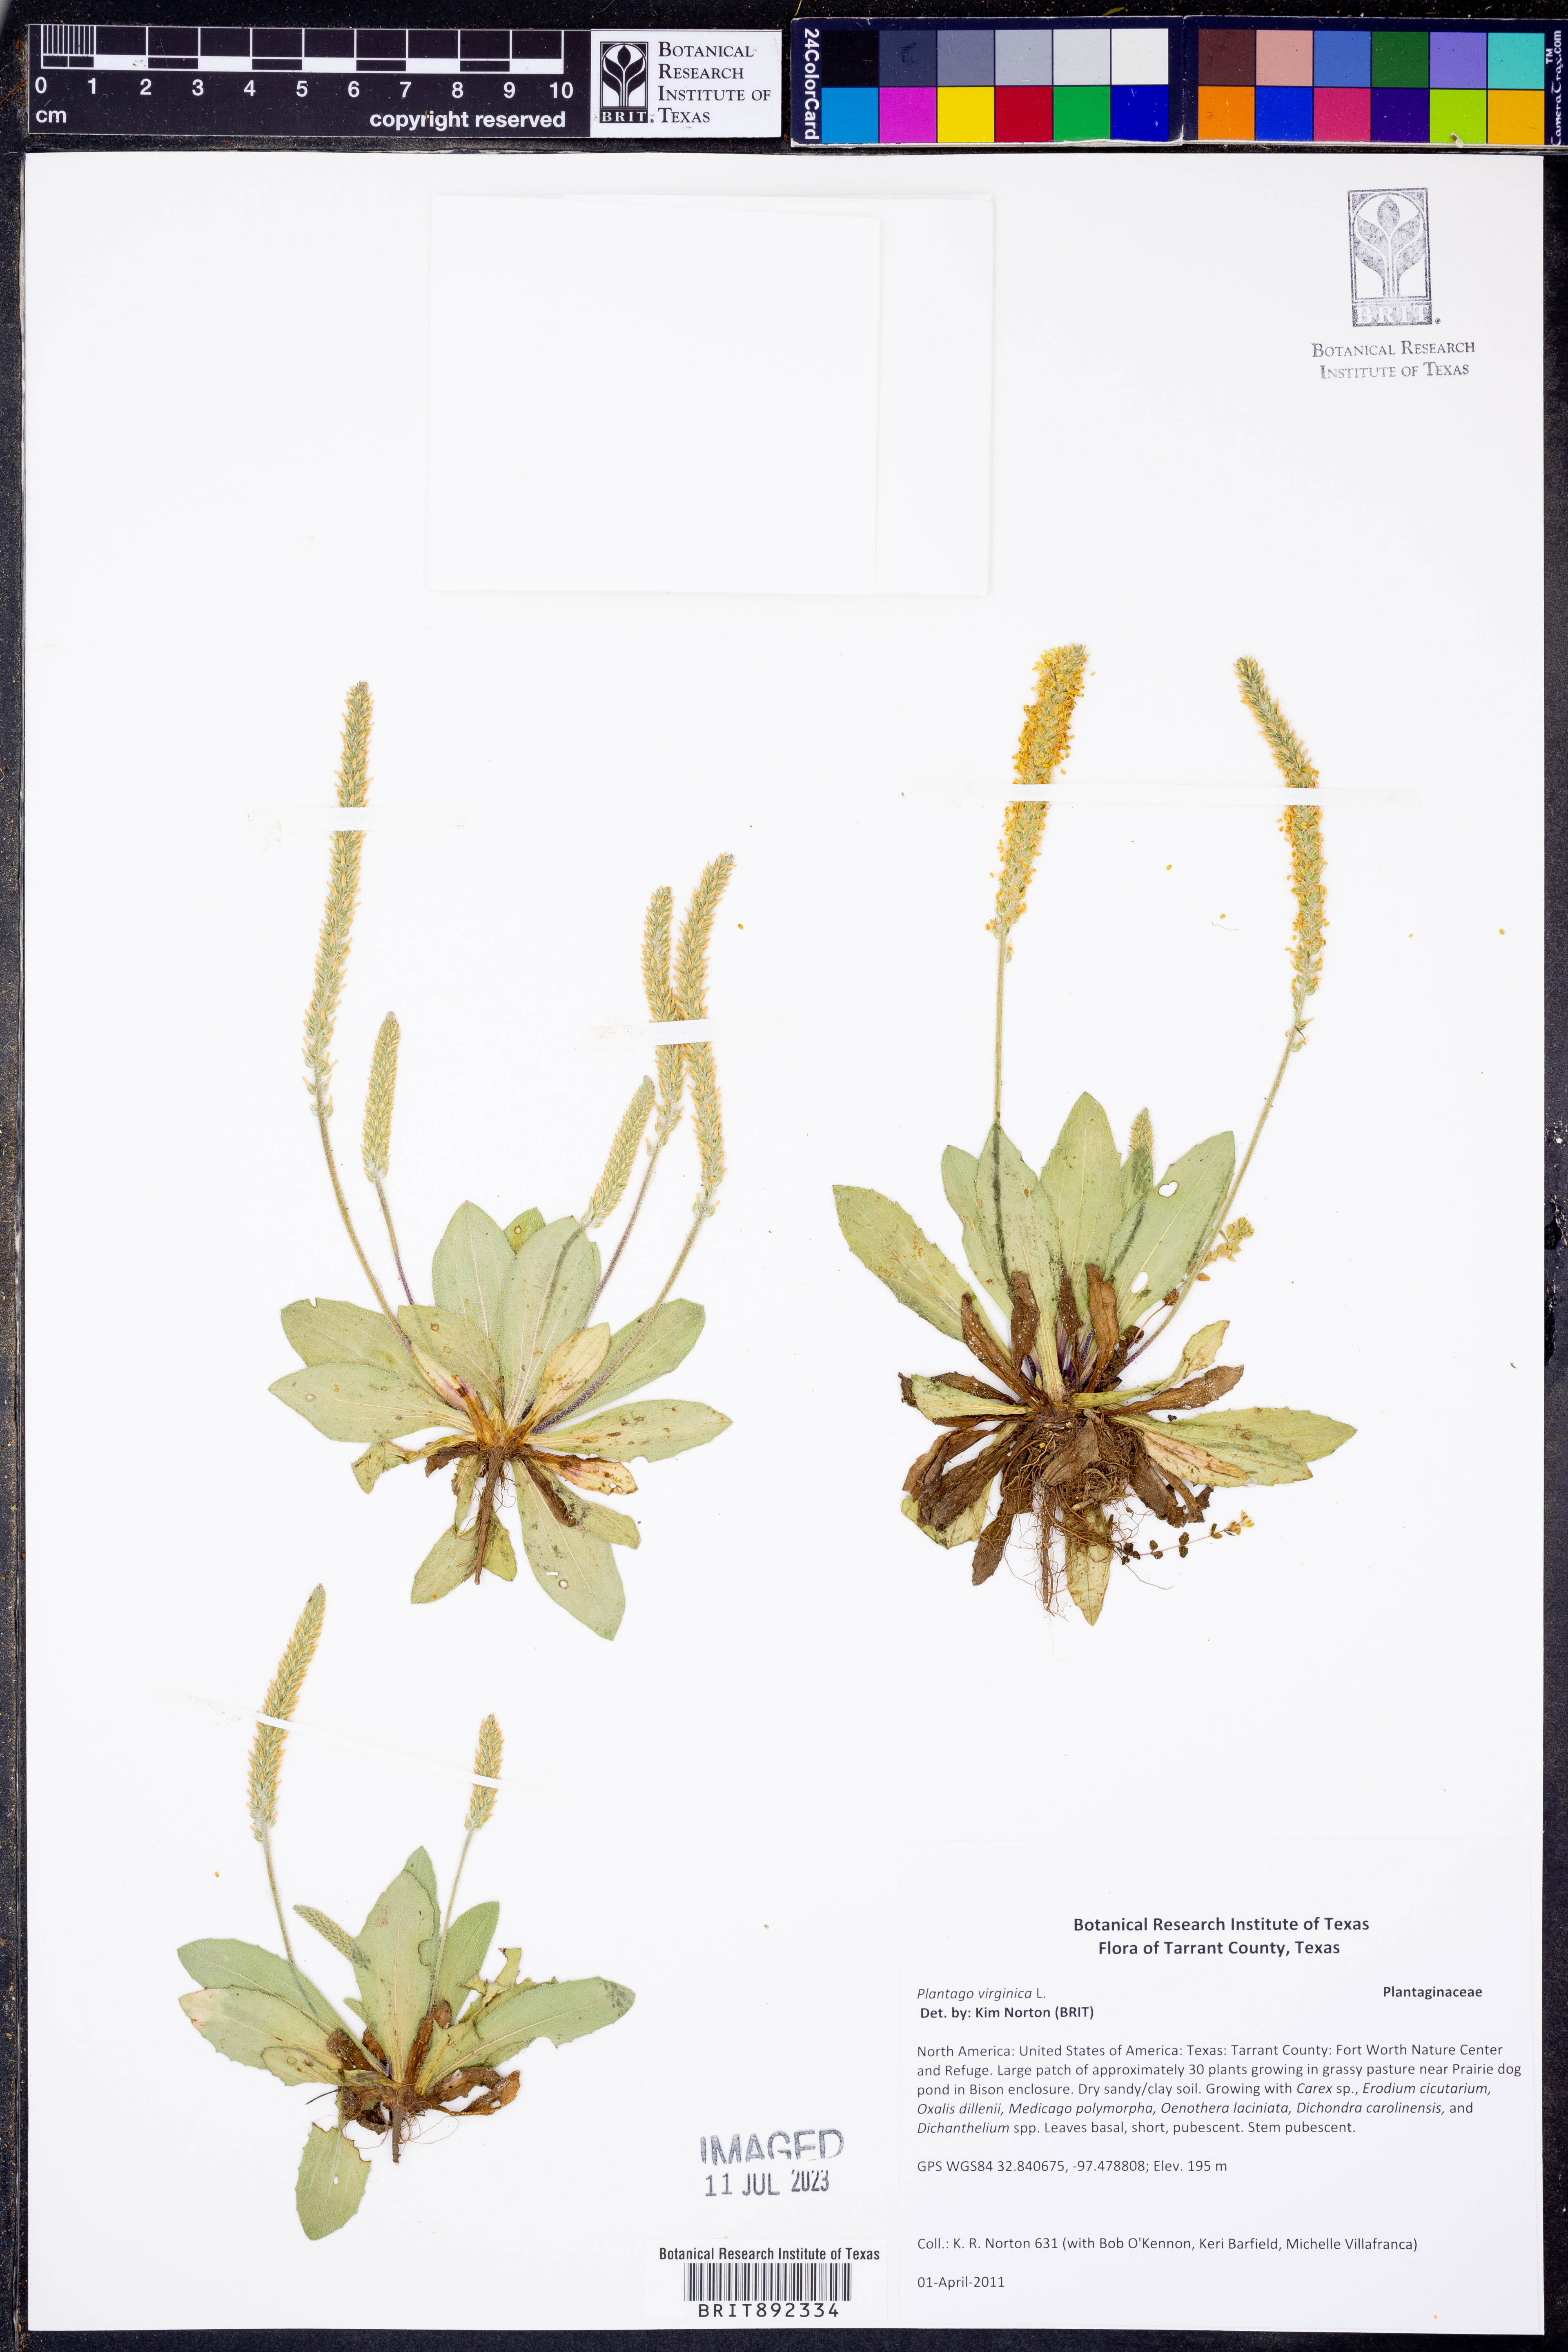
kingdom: Plantae
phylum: Tracheophyta
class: Magnoliopsida
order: Lamiales
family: Plantaginaceae
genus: Plantago
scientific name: Plantago virginica
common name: Hoary plantain
